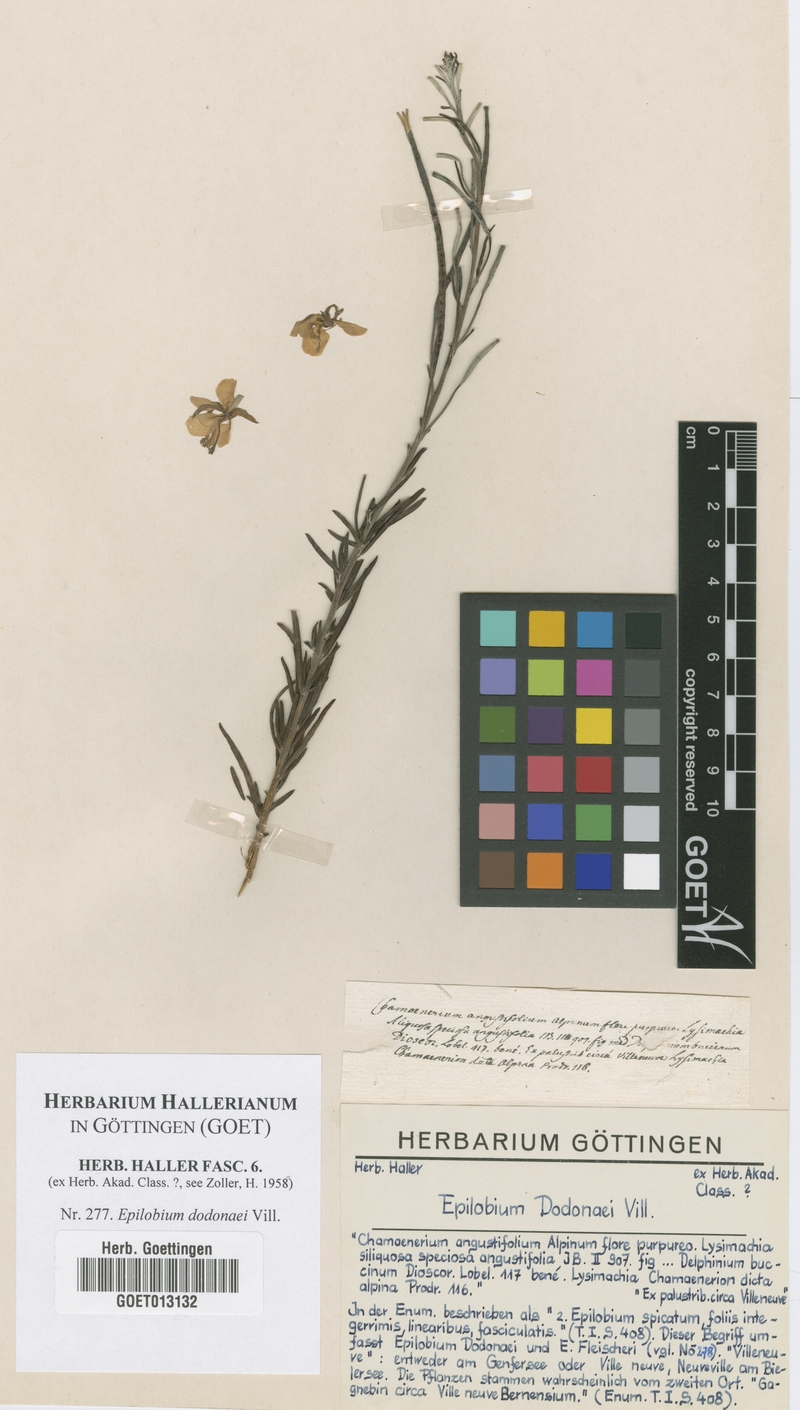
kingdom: Plantae
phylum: Tracheophyta
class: Magnoliopsida
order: Myrtales
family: Onagraceae
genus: Chamaenerion
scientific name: Chamaenerion dodonaei
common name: Rosemary-leaved willowherb
